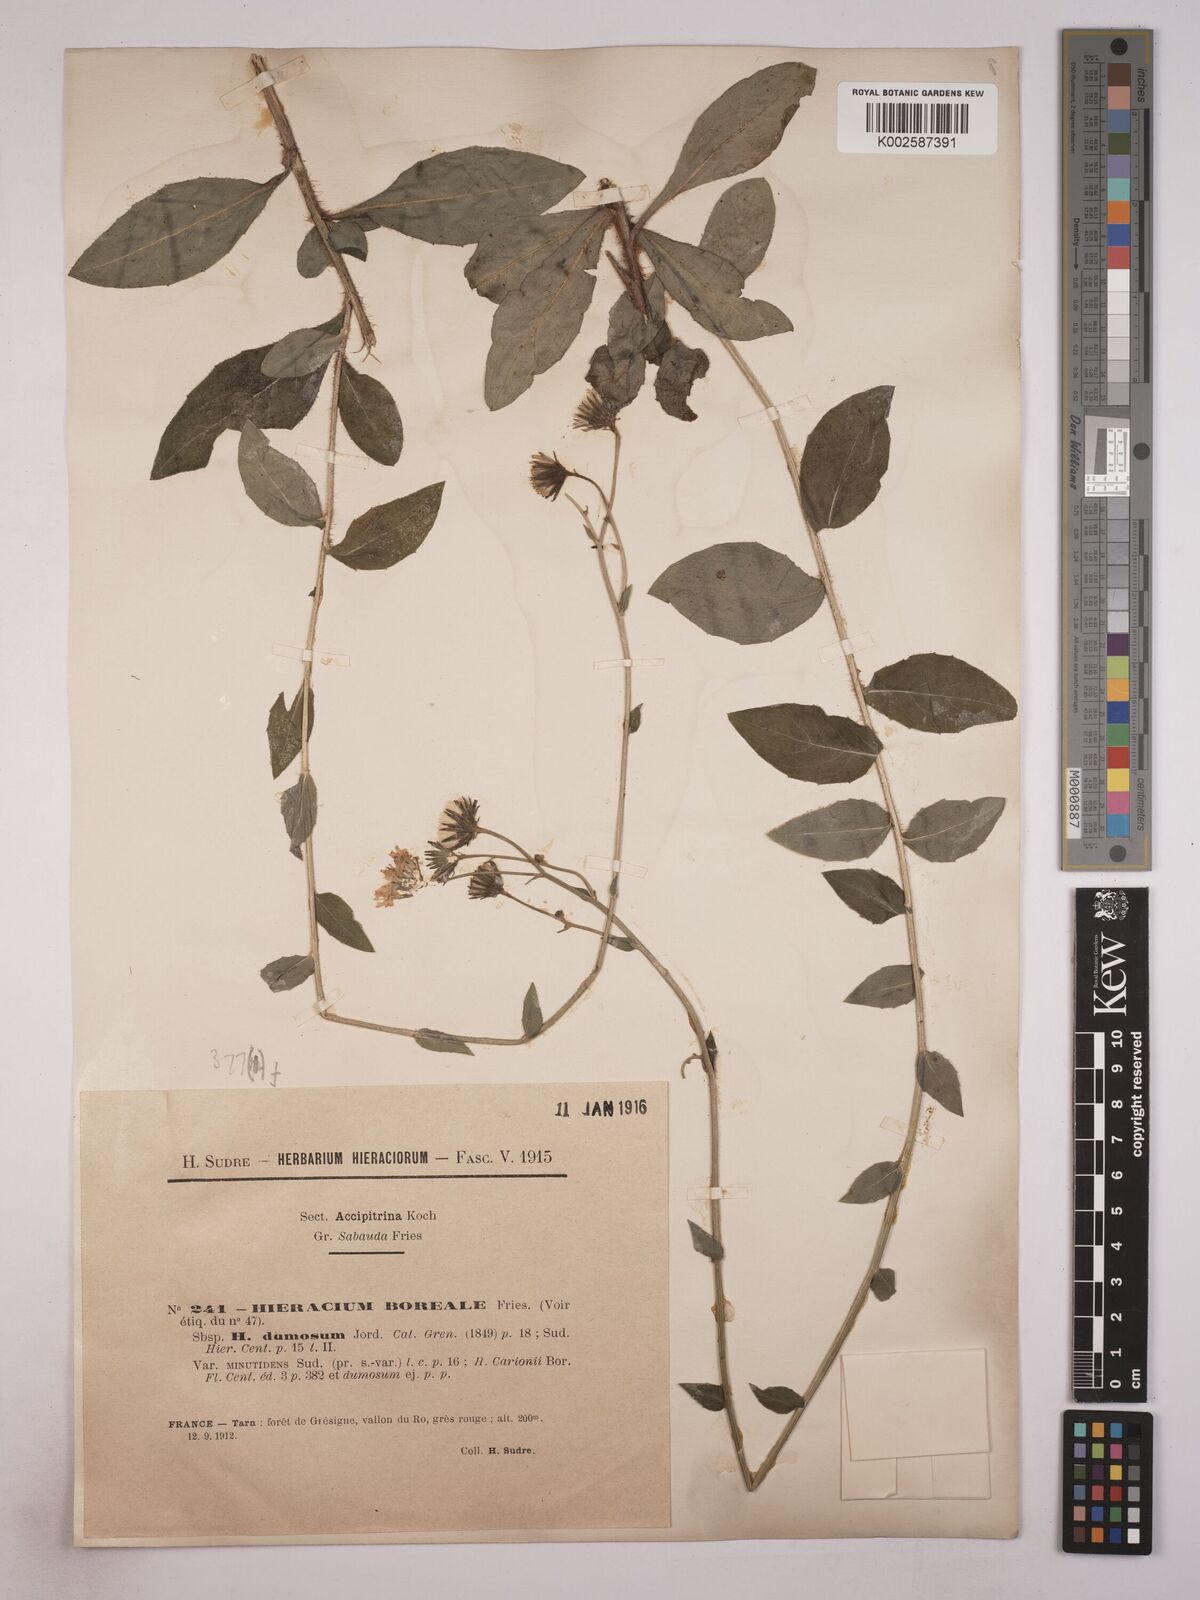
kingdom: Plantae
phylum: Tracheophyta
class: Magnoliopsida
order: Asterales
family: Asteraceae
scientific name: Asteraceae
